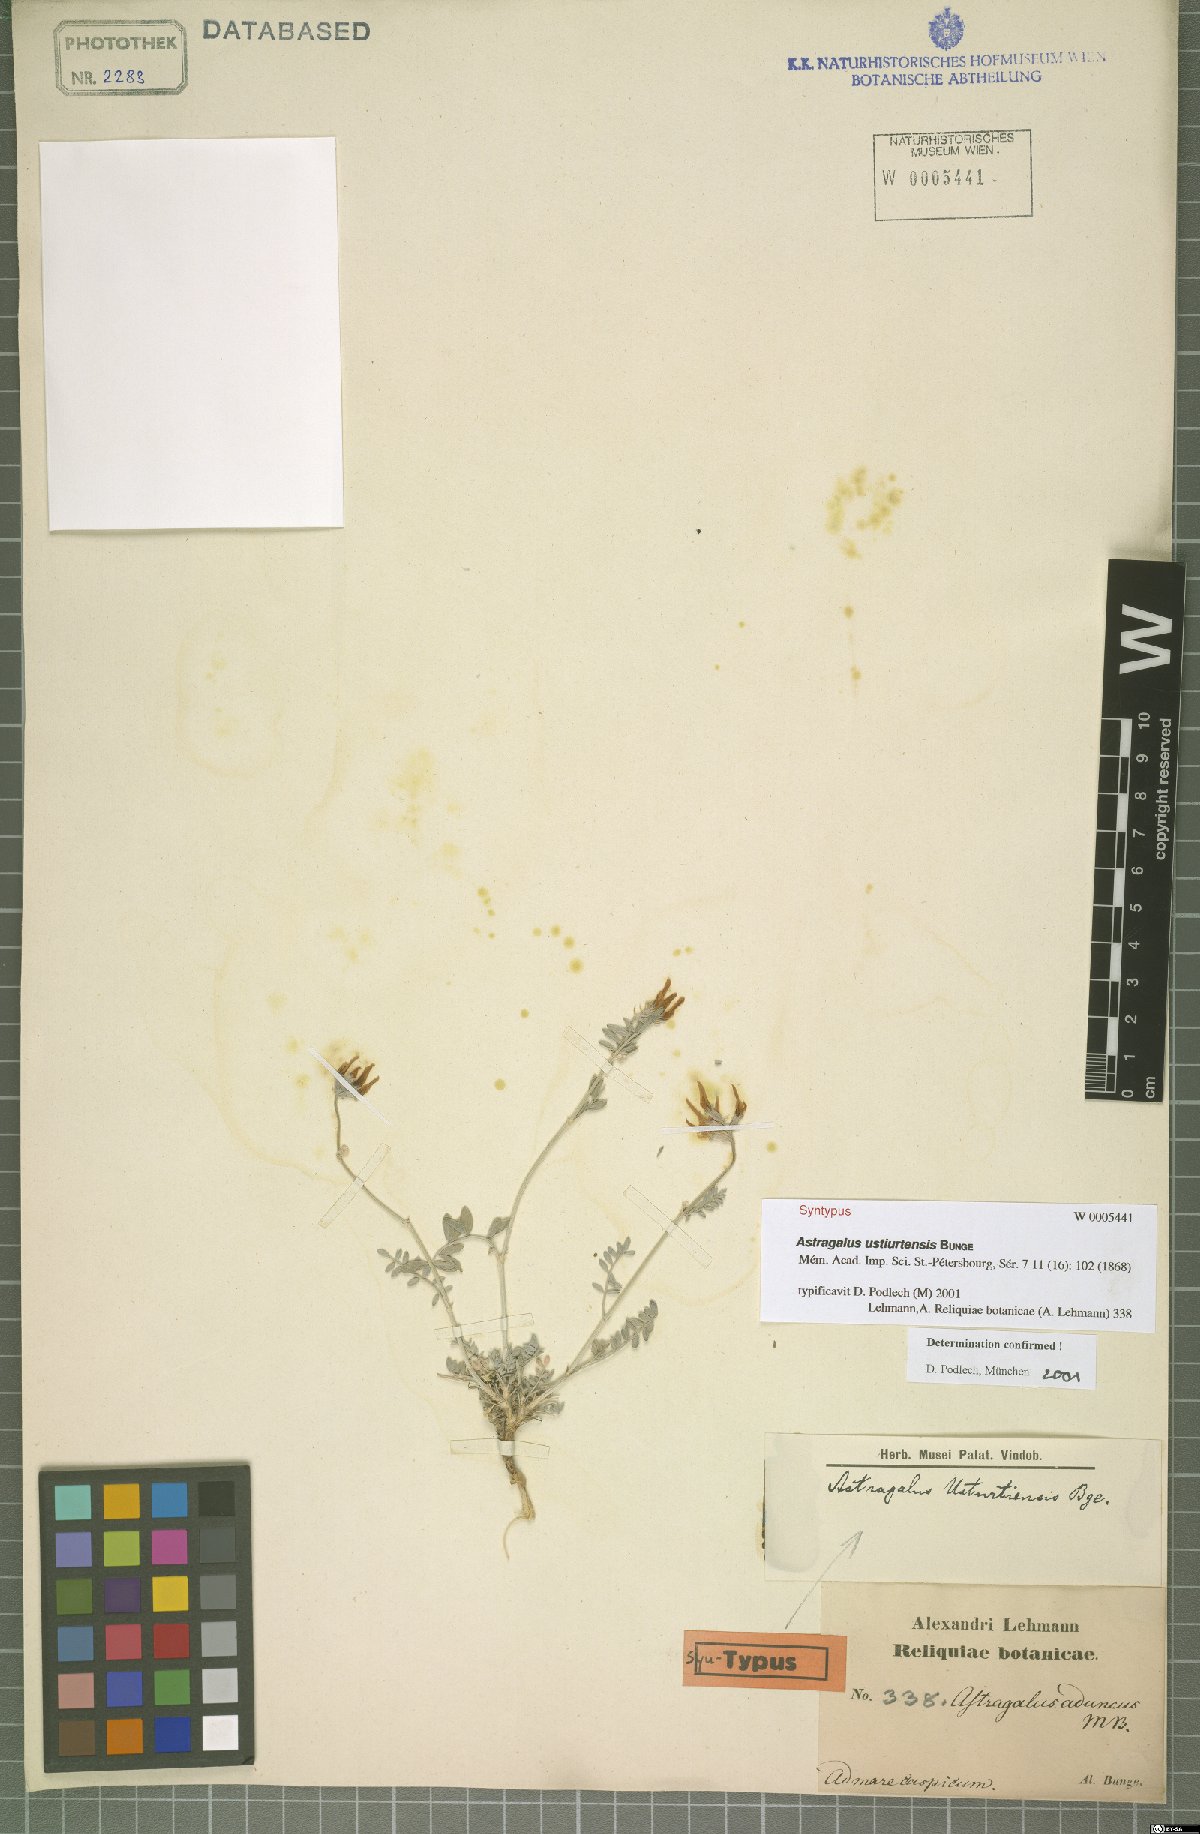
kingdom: Plantae
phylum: Tracheophyta
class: Magnoliopsida
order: Fabales
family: Fabaceae
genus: Astragalus
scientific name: Astragalus ustiurtensis
